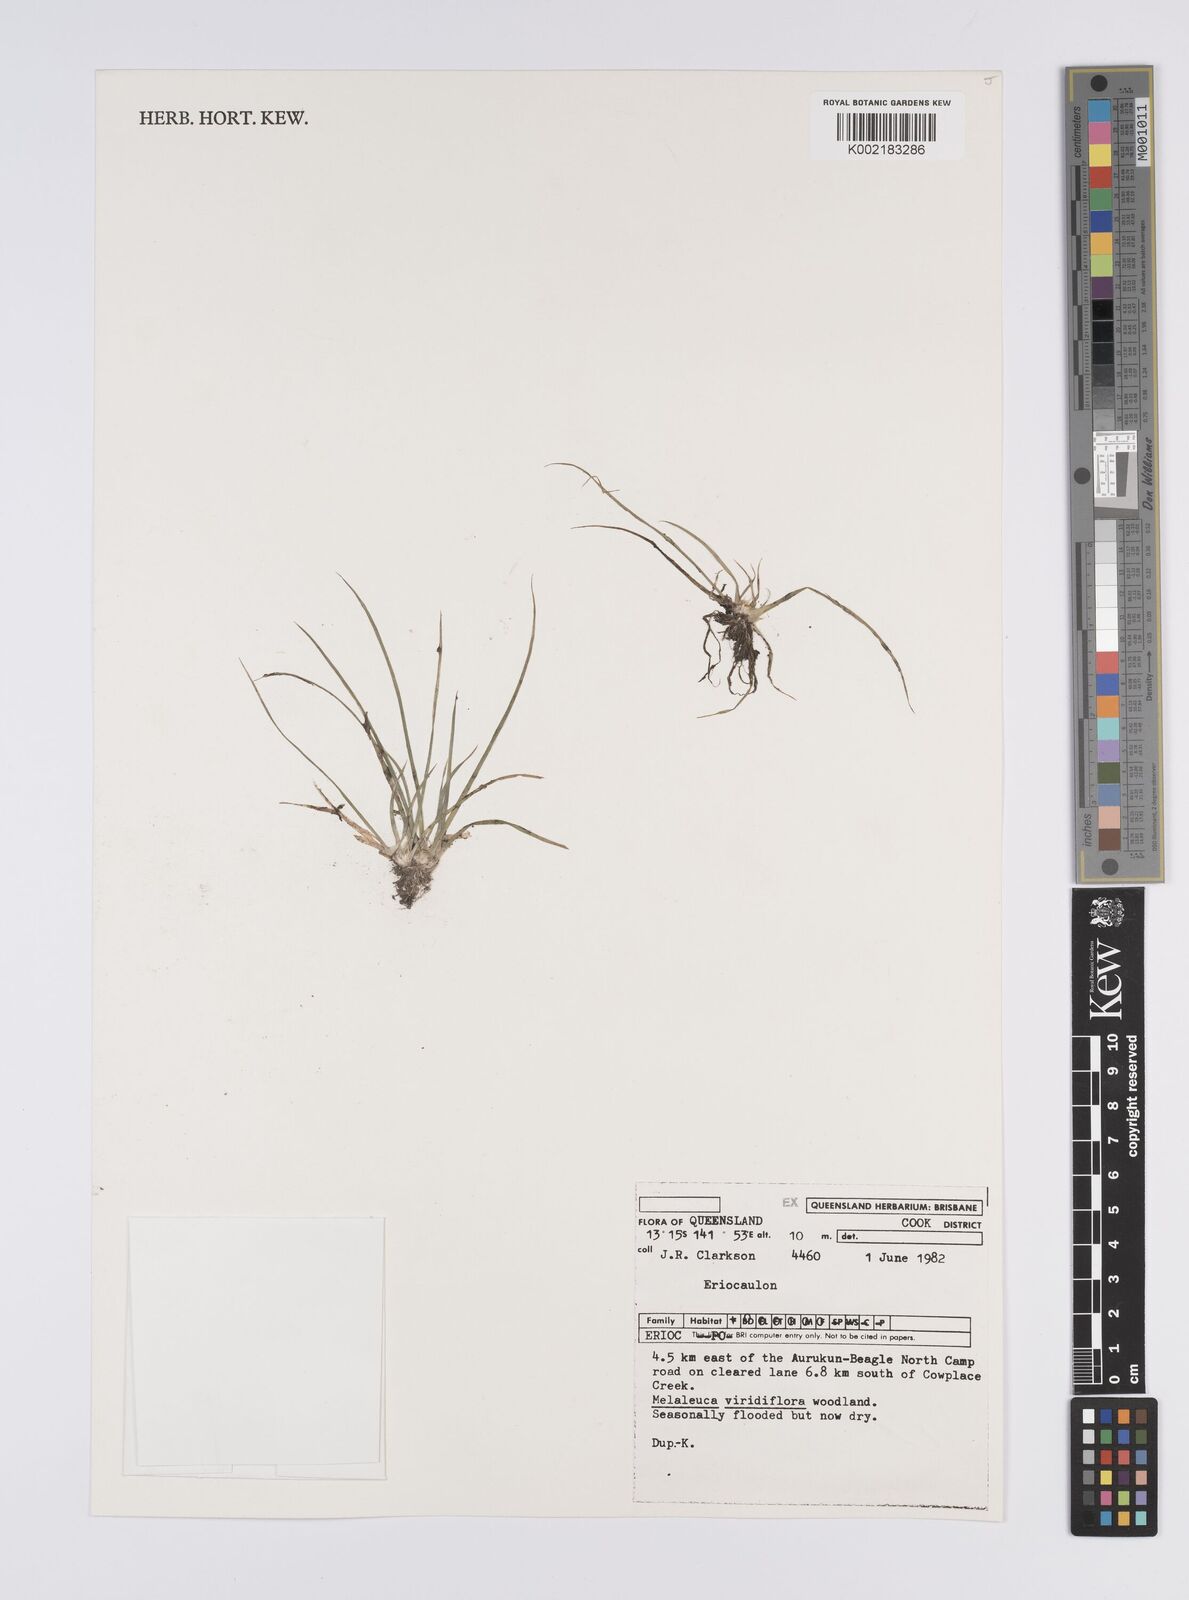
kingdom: Plantae
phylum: Tracheophyta
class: Liliopsida
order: Poales
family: Eriocaulaceae
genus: Eriocaulon
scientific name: Eriocaulon
